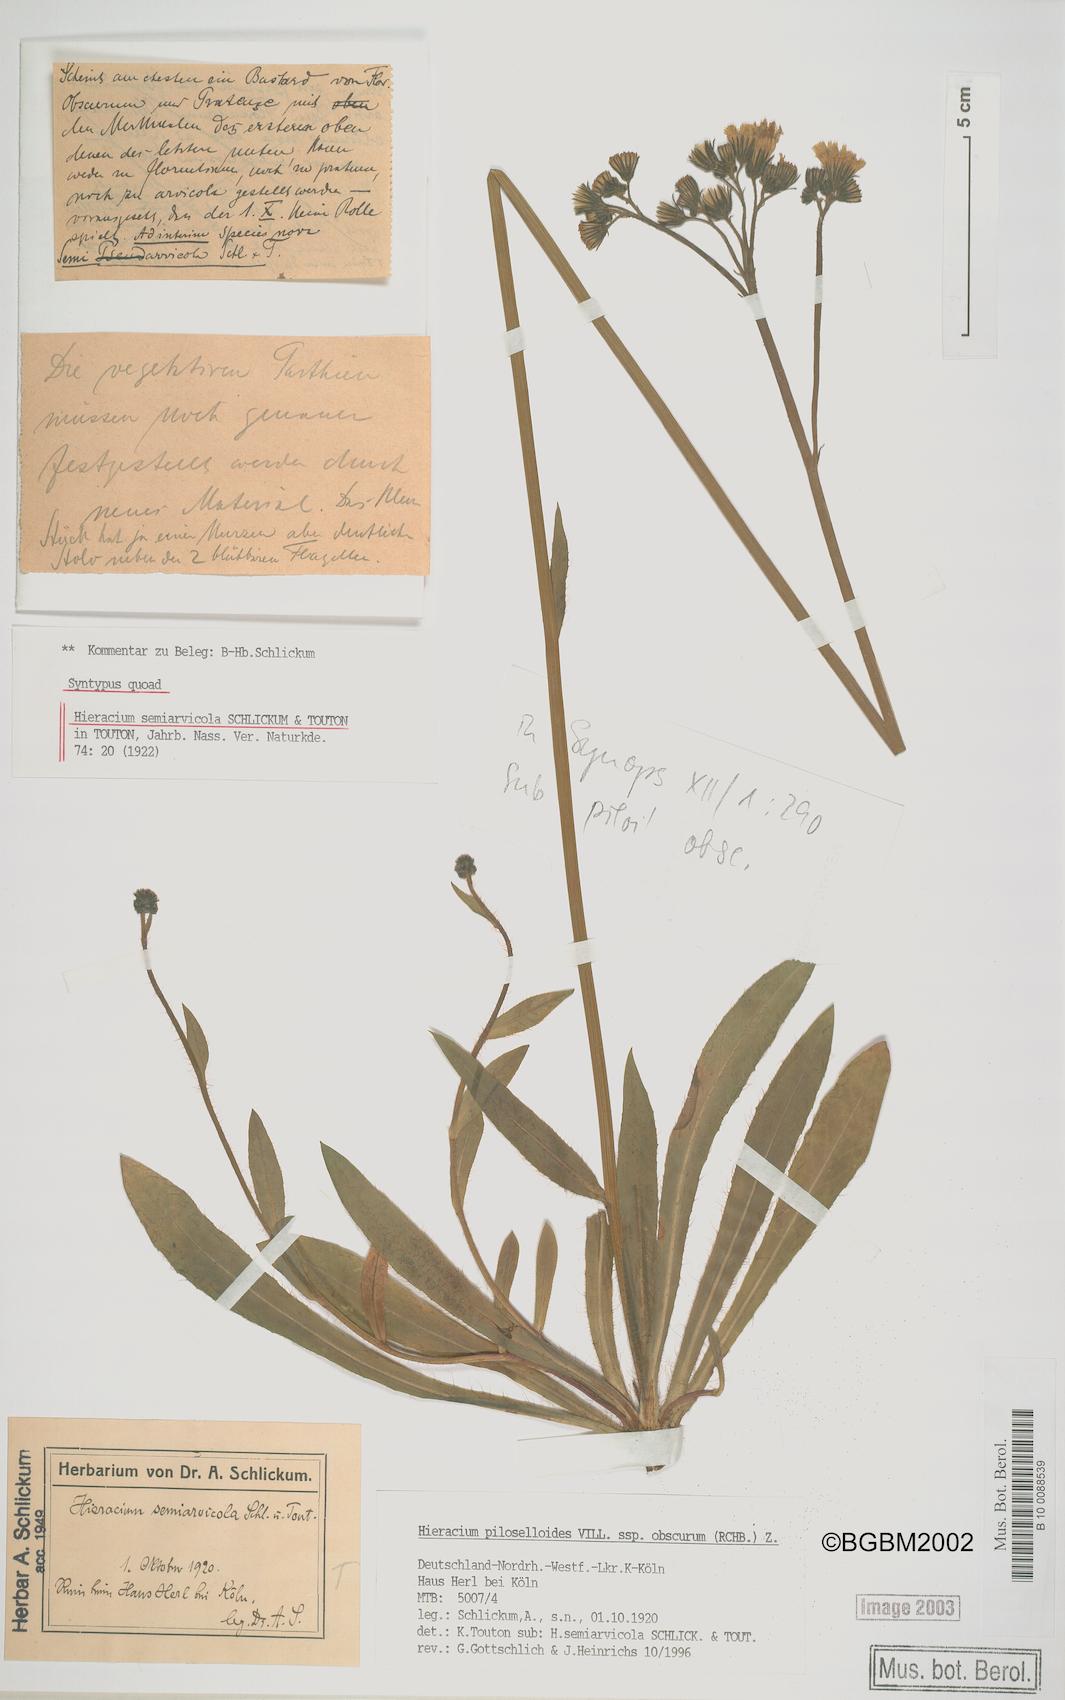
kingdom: Plantae
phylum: Tracheophyta
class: Magnoliopsida
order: Asterales
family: Asteraceae
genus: Hieracium
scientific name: Hieracium
